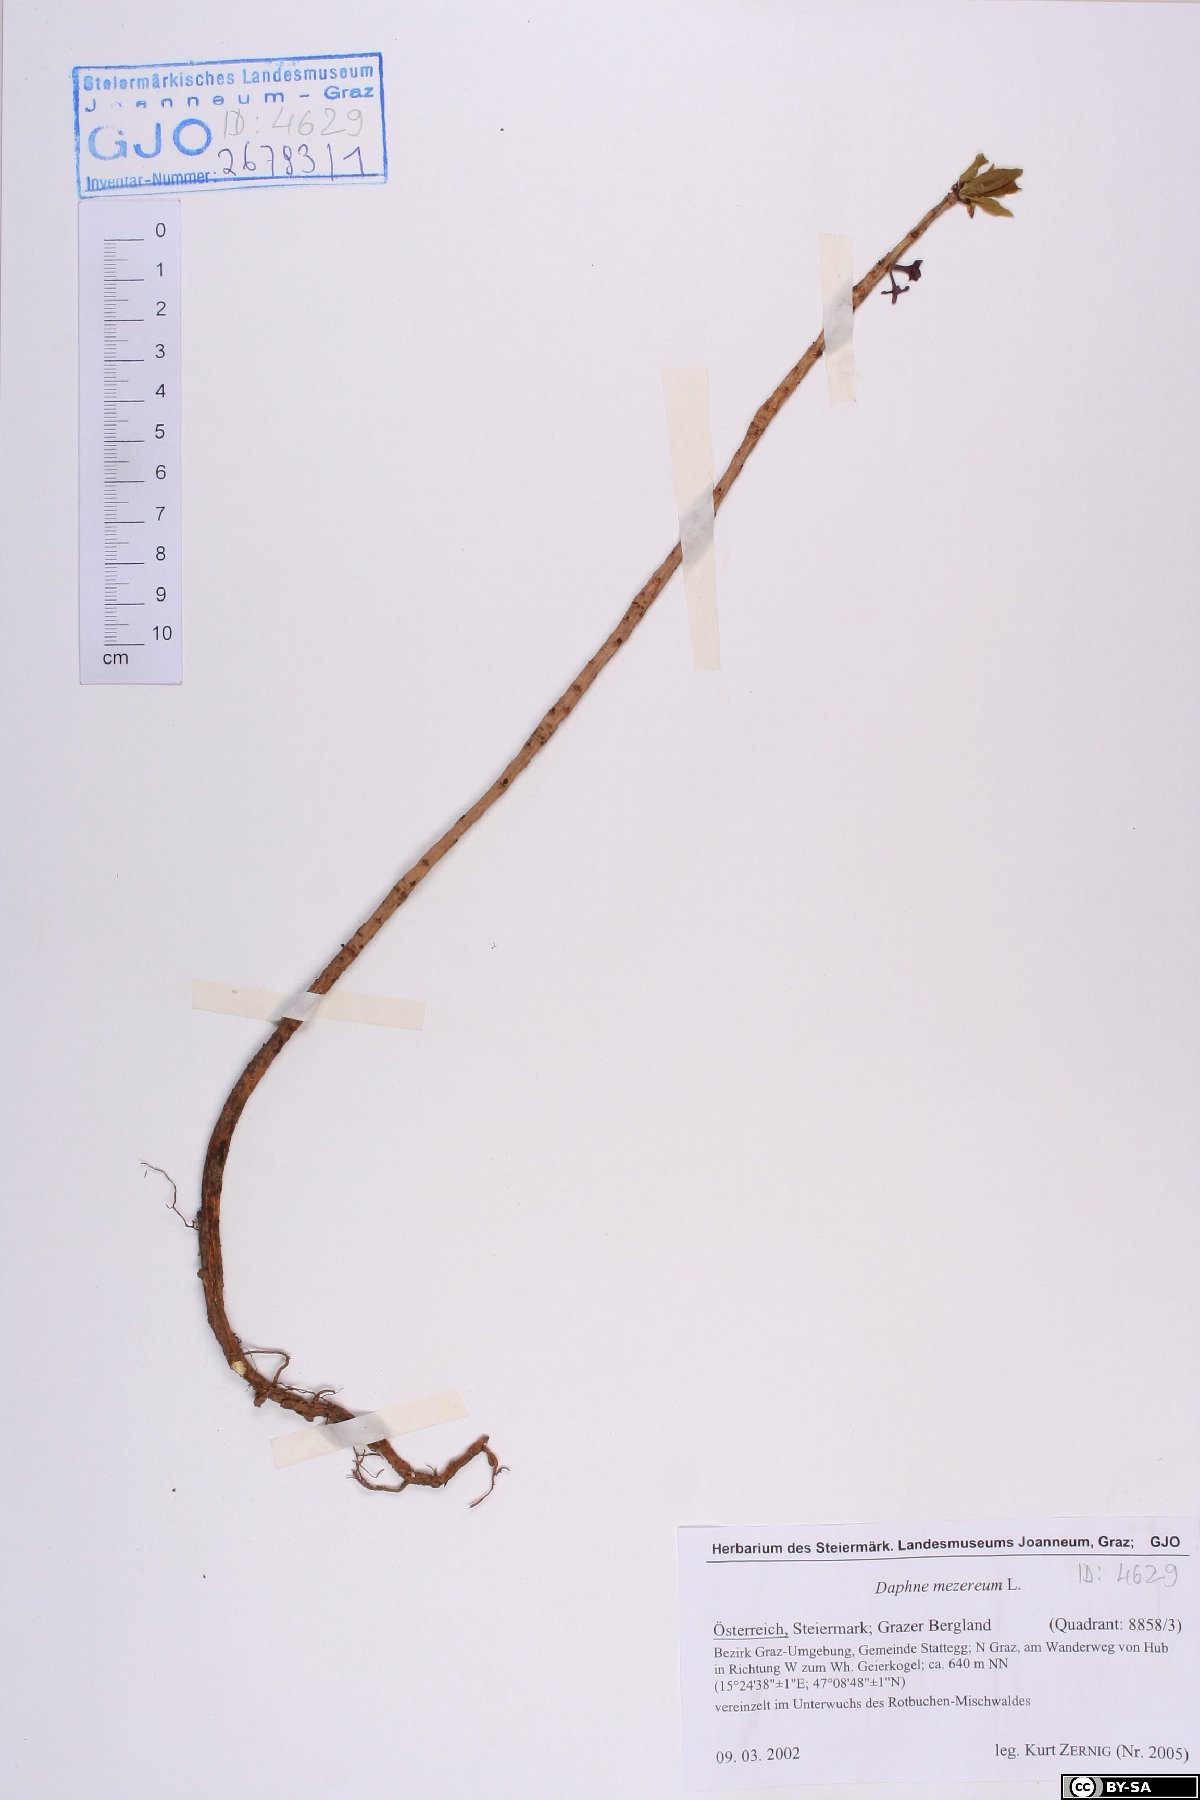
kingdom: Plantae
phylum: Tracheophyta
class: Magnoliopsida
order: Malvales
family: Thymelaeaceae
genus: Daphne
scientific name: Daphne mezereum
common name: Mezereon
